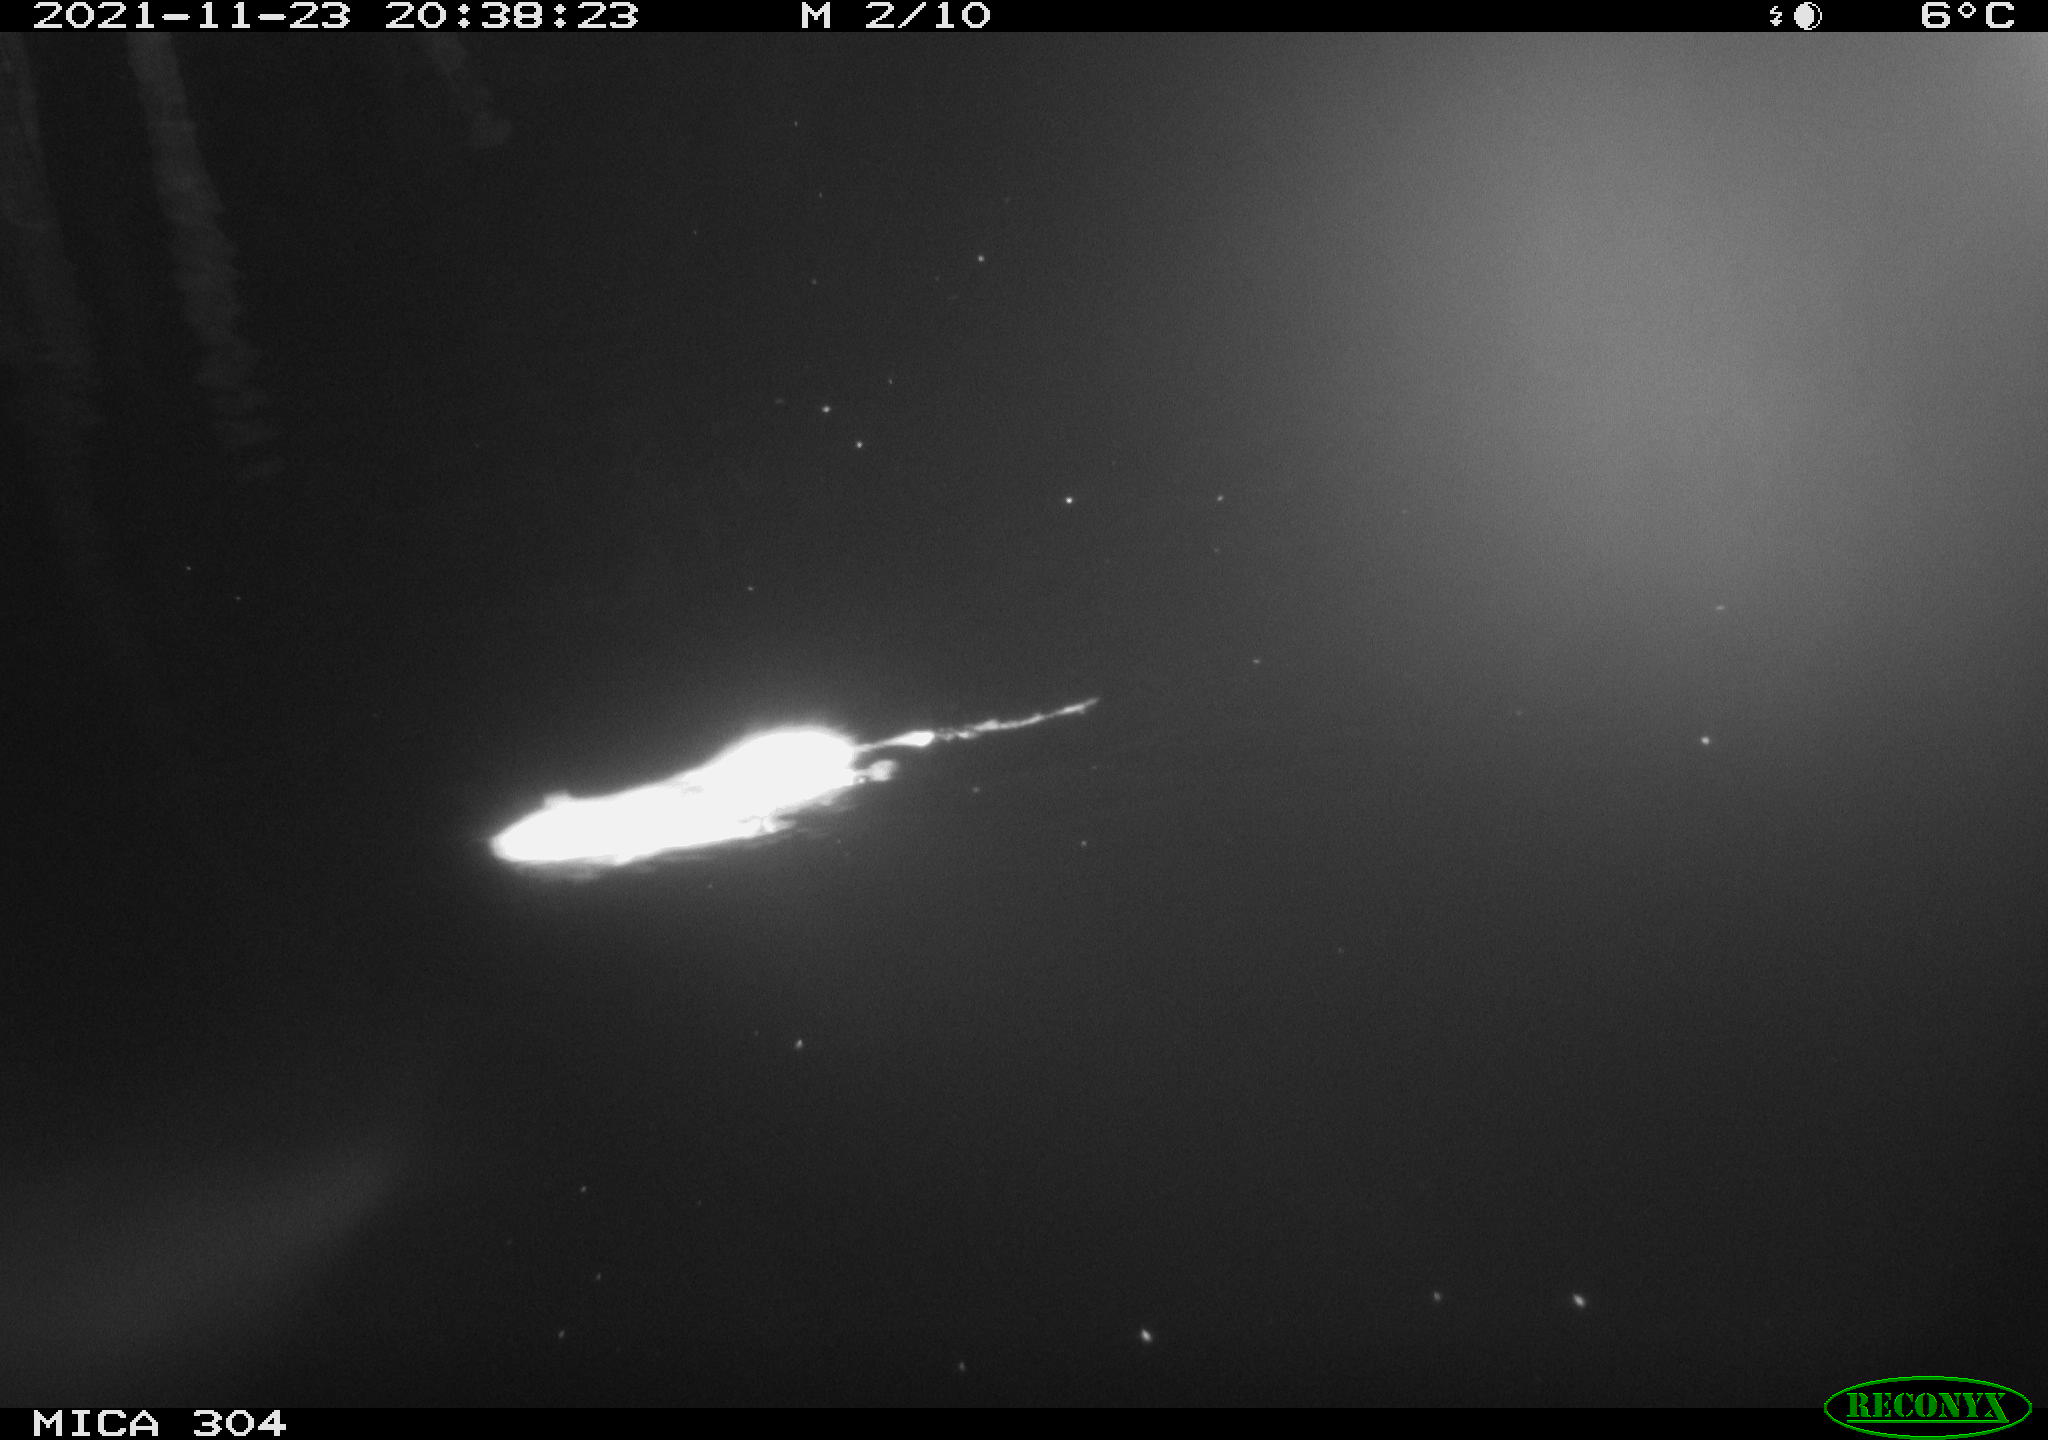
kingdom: Animalia
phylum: Chordata
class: Mammalia
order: Rodentia
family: Muridae
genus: Rattus
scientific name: Rattus norvegicus
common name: Brown rat
